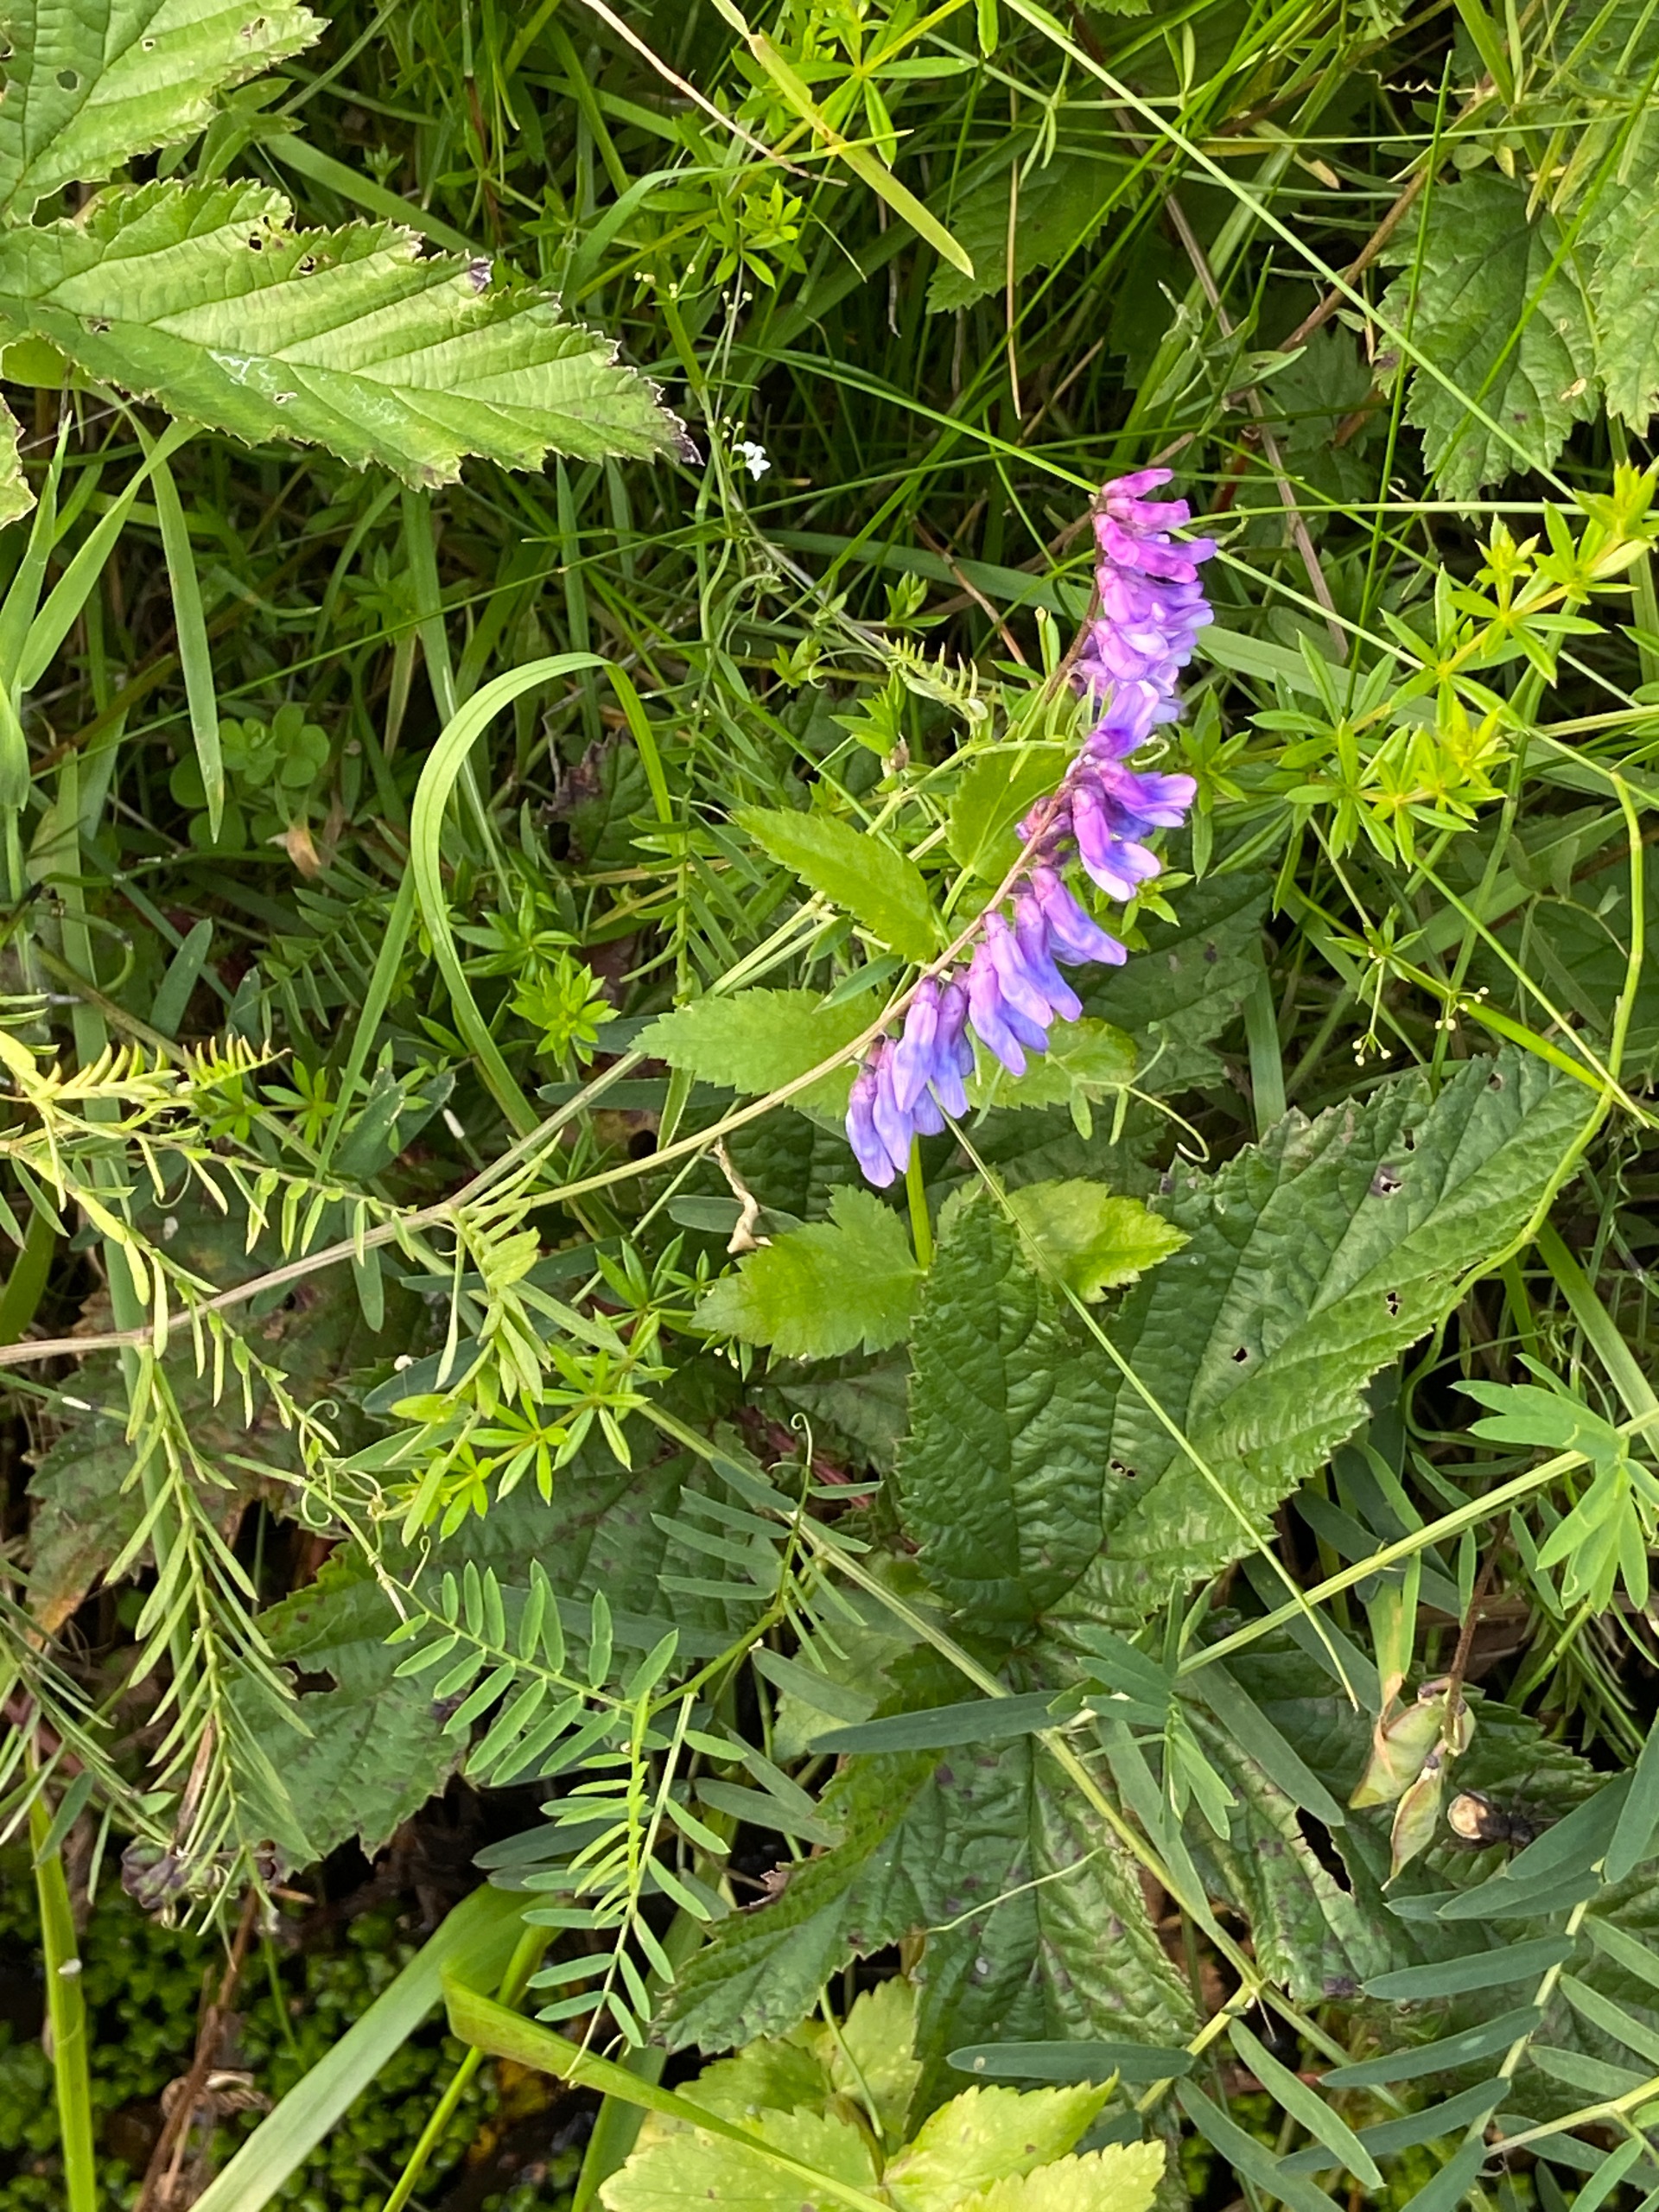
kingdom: Plantae
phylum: Tracheophyta
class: Magnoliopsida
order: Fabales
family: Fabaceae
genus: Vicia
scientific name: Vicia cracca
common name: Muse-vikke
